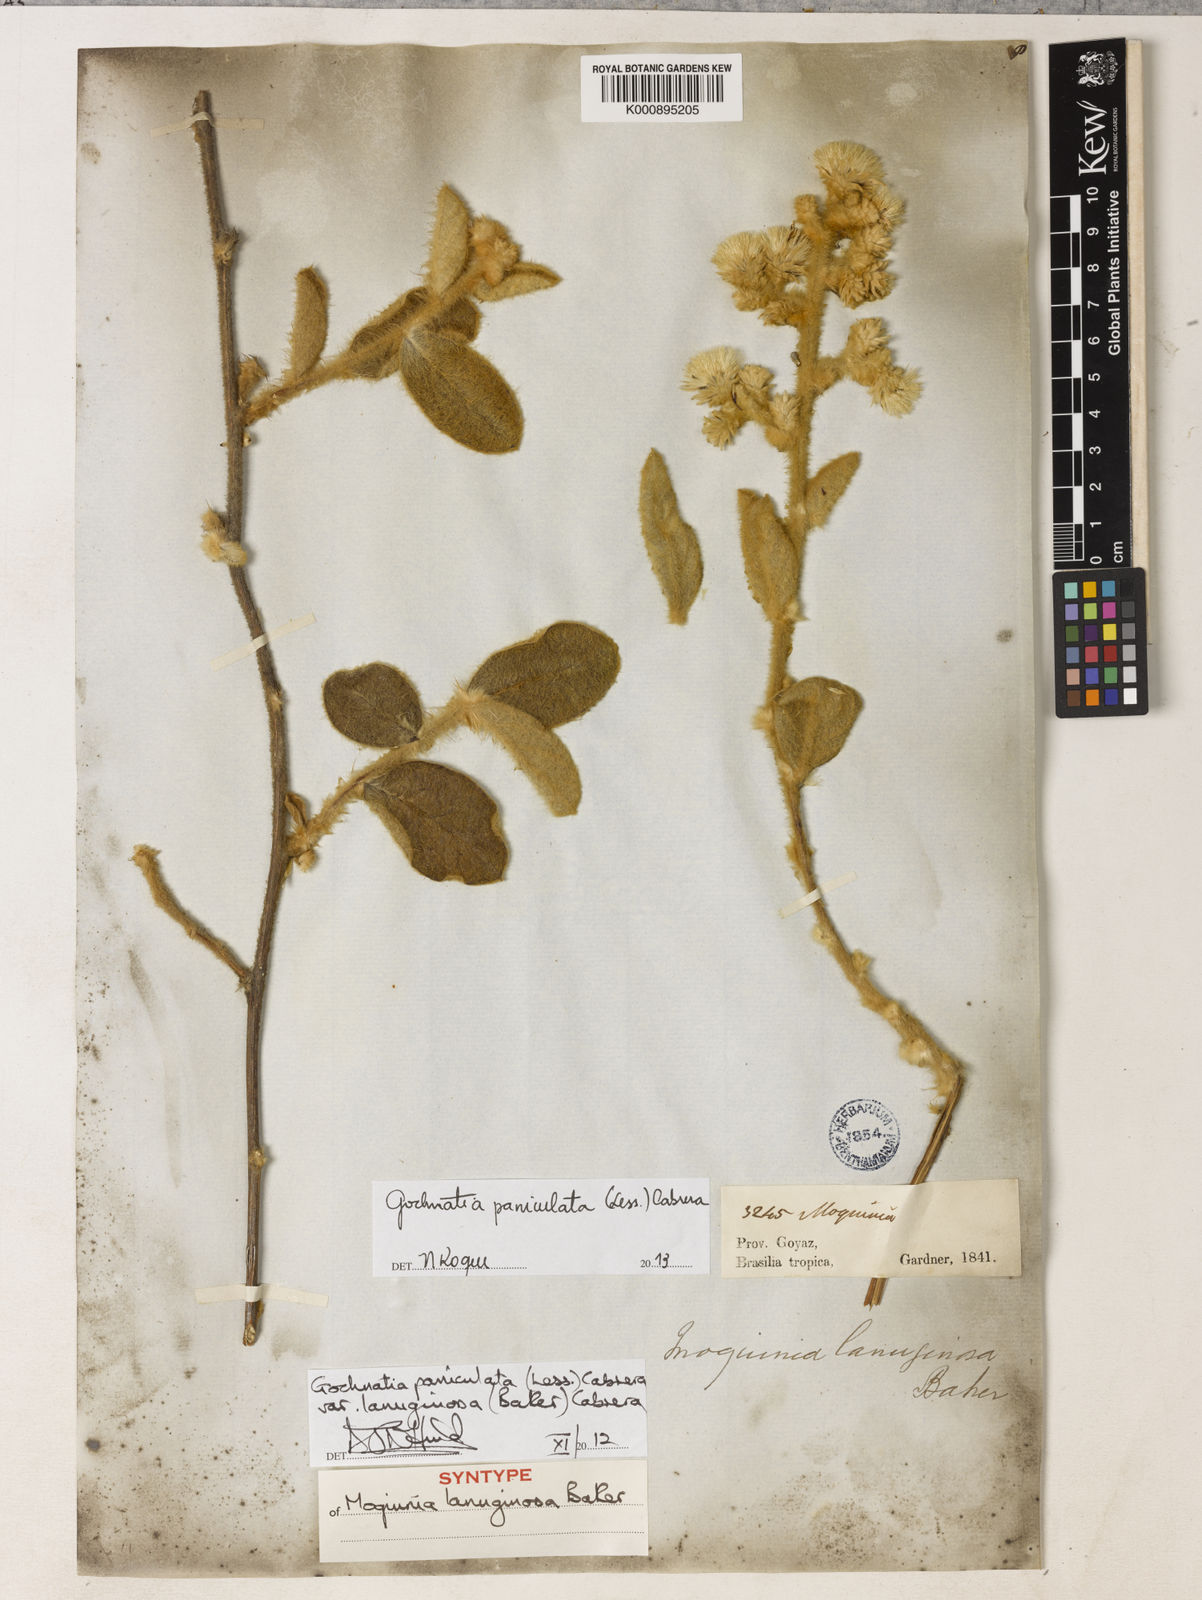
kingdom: Plantae
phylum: Tracheophyta
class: Magnoliopsida
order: Asterales
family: Asteraceae
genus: Moquiniastrum
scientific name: Moquiniastrum paniculatum
